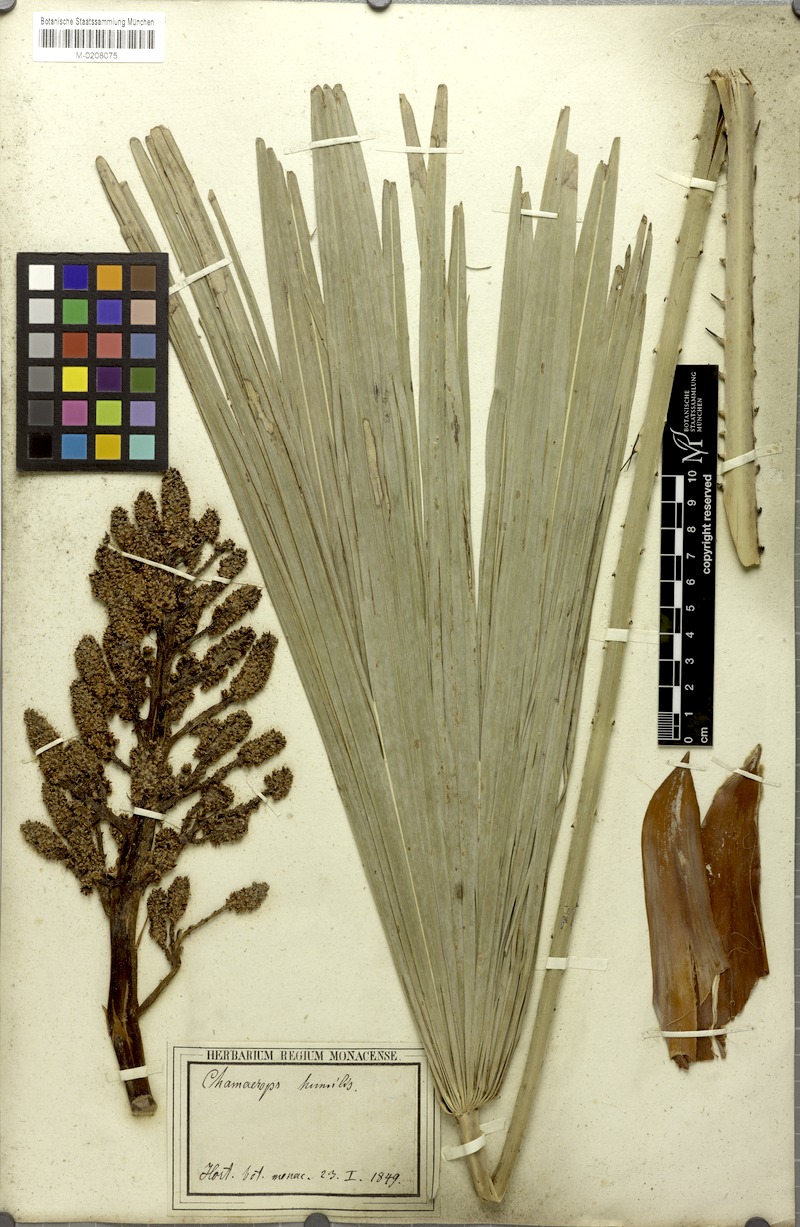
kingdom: Plantae
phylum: Tracheophyta
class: Liliopsida
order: Arecales
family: Arecaceae
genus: Chamaerops
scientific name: Chamaerops humilis
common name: Dwarf fan palm
